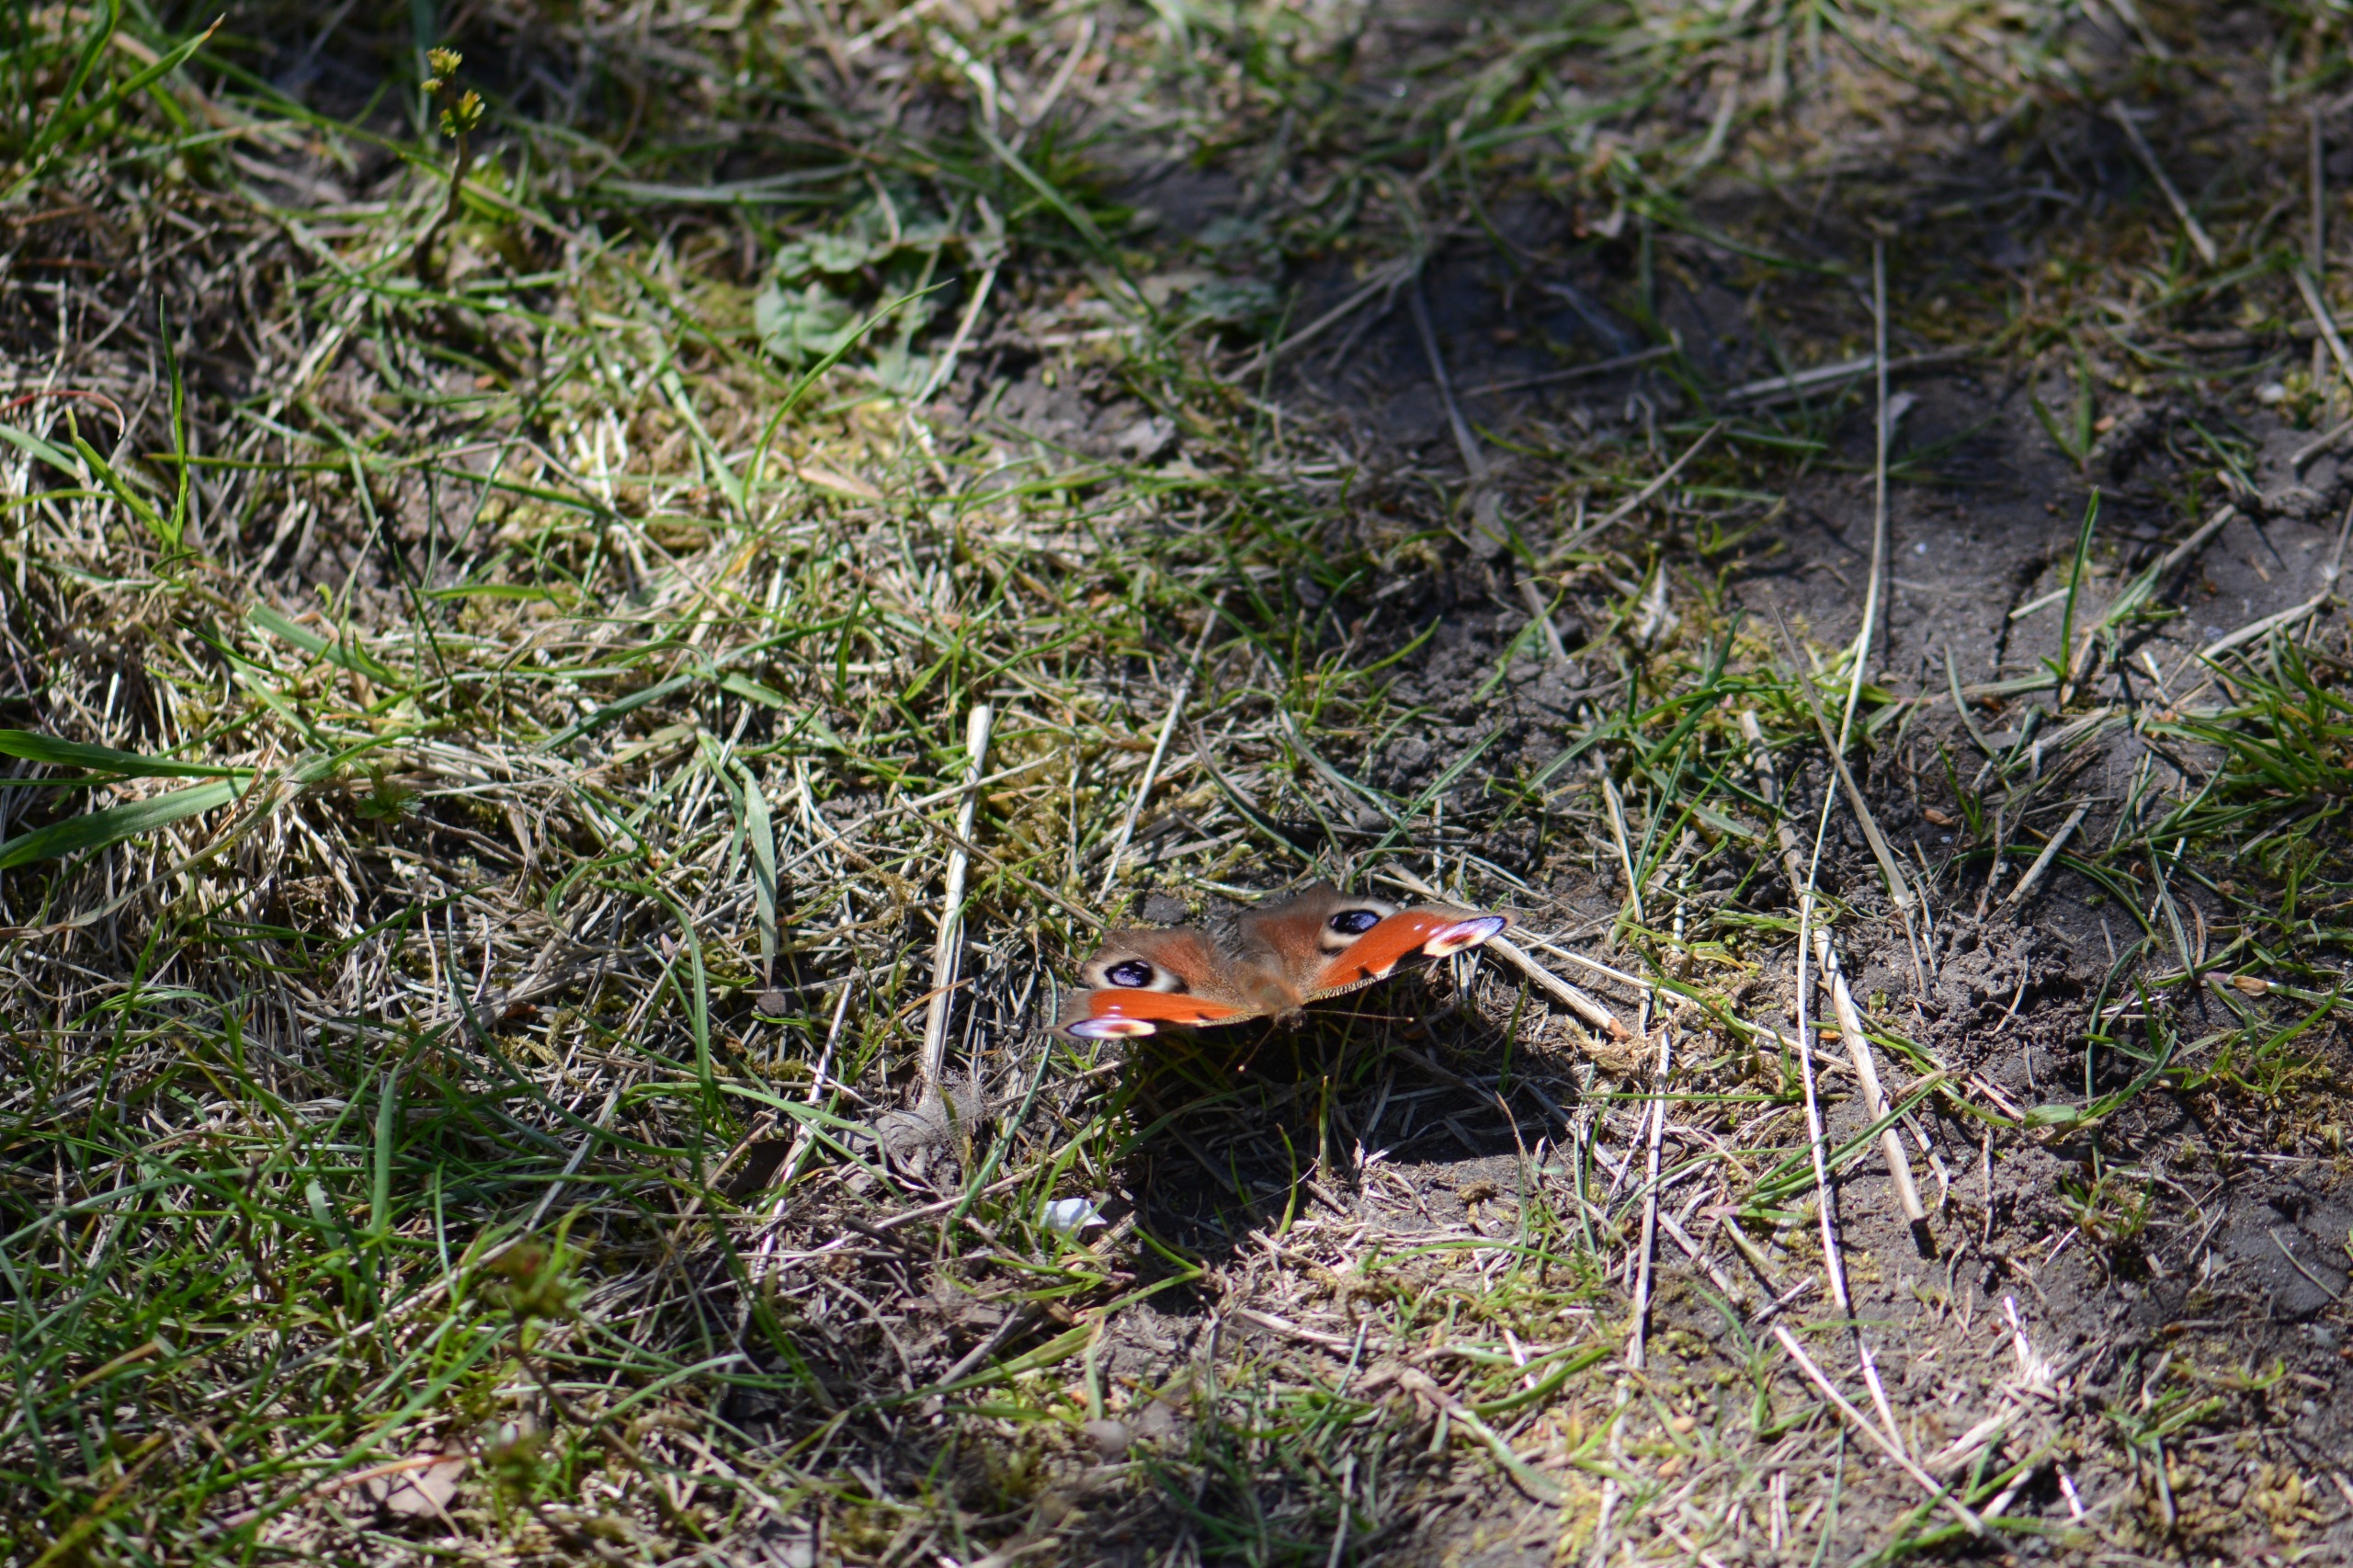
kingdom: Animalia
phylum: Arthropoda
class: Insecta
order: Lepidoptera
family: Nymphalidae
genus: Aglais
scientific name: Aglais io
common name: Dagpåfugleøje
